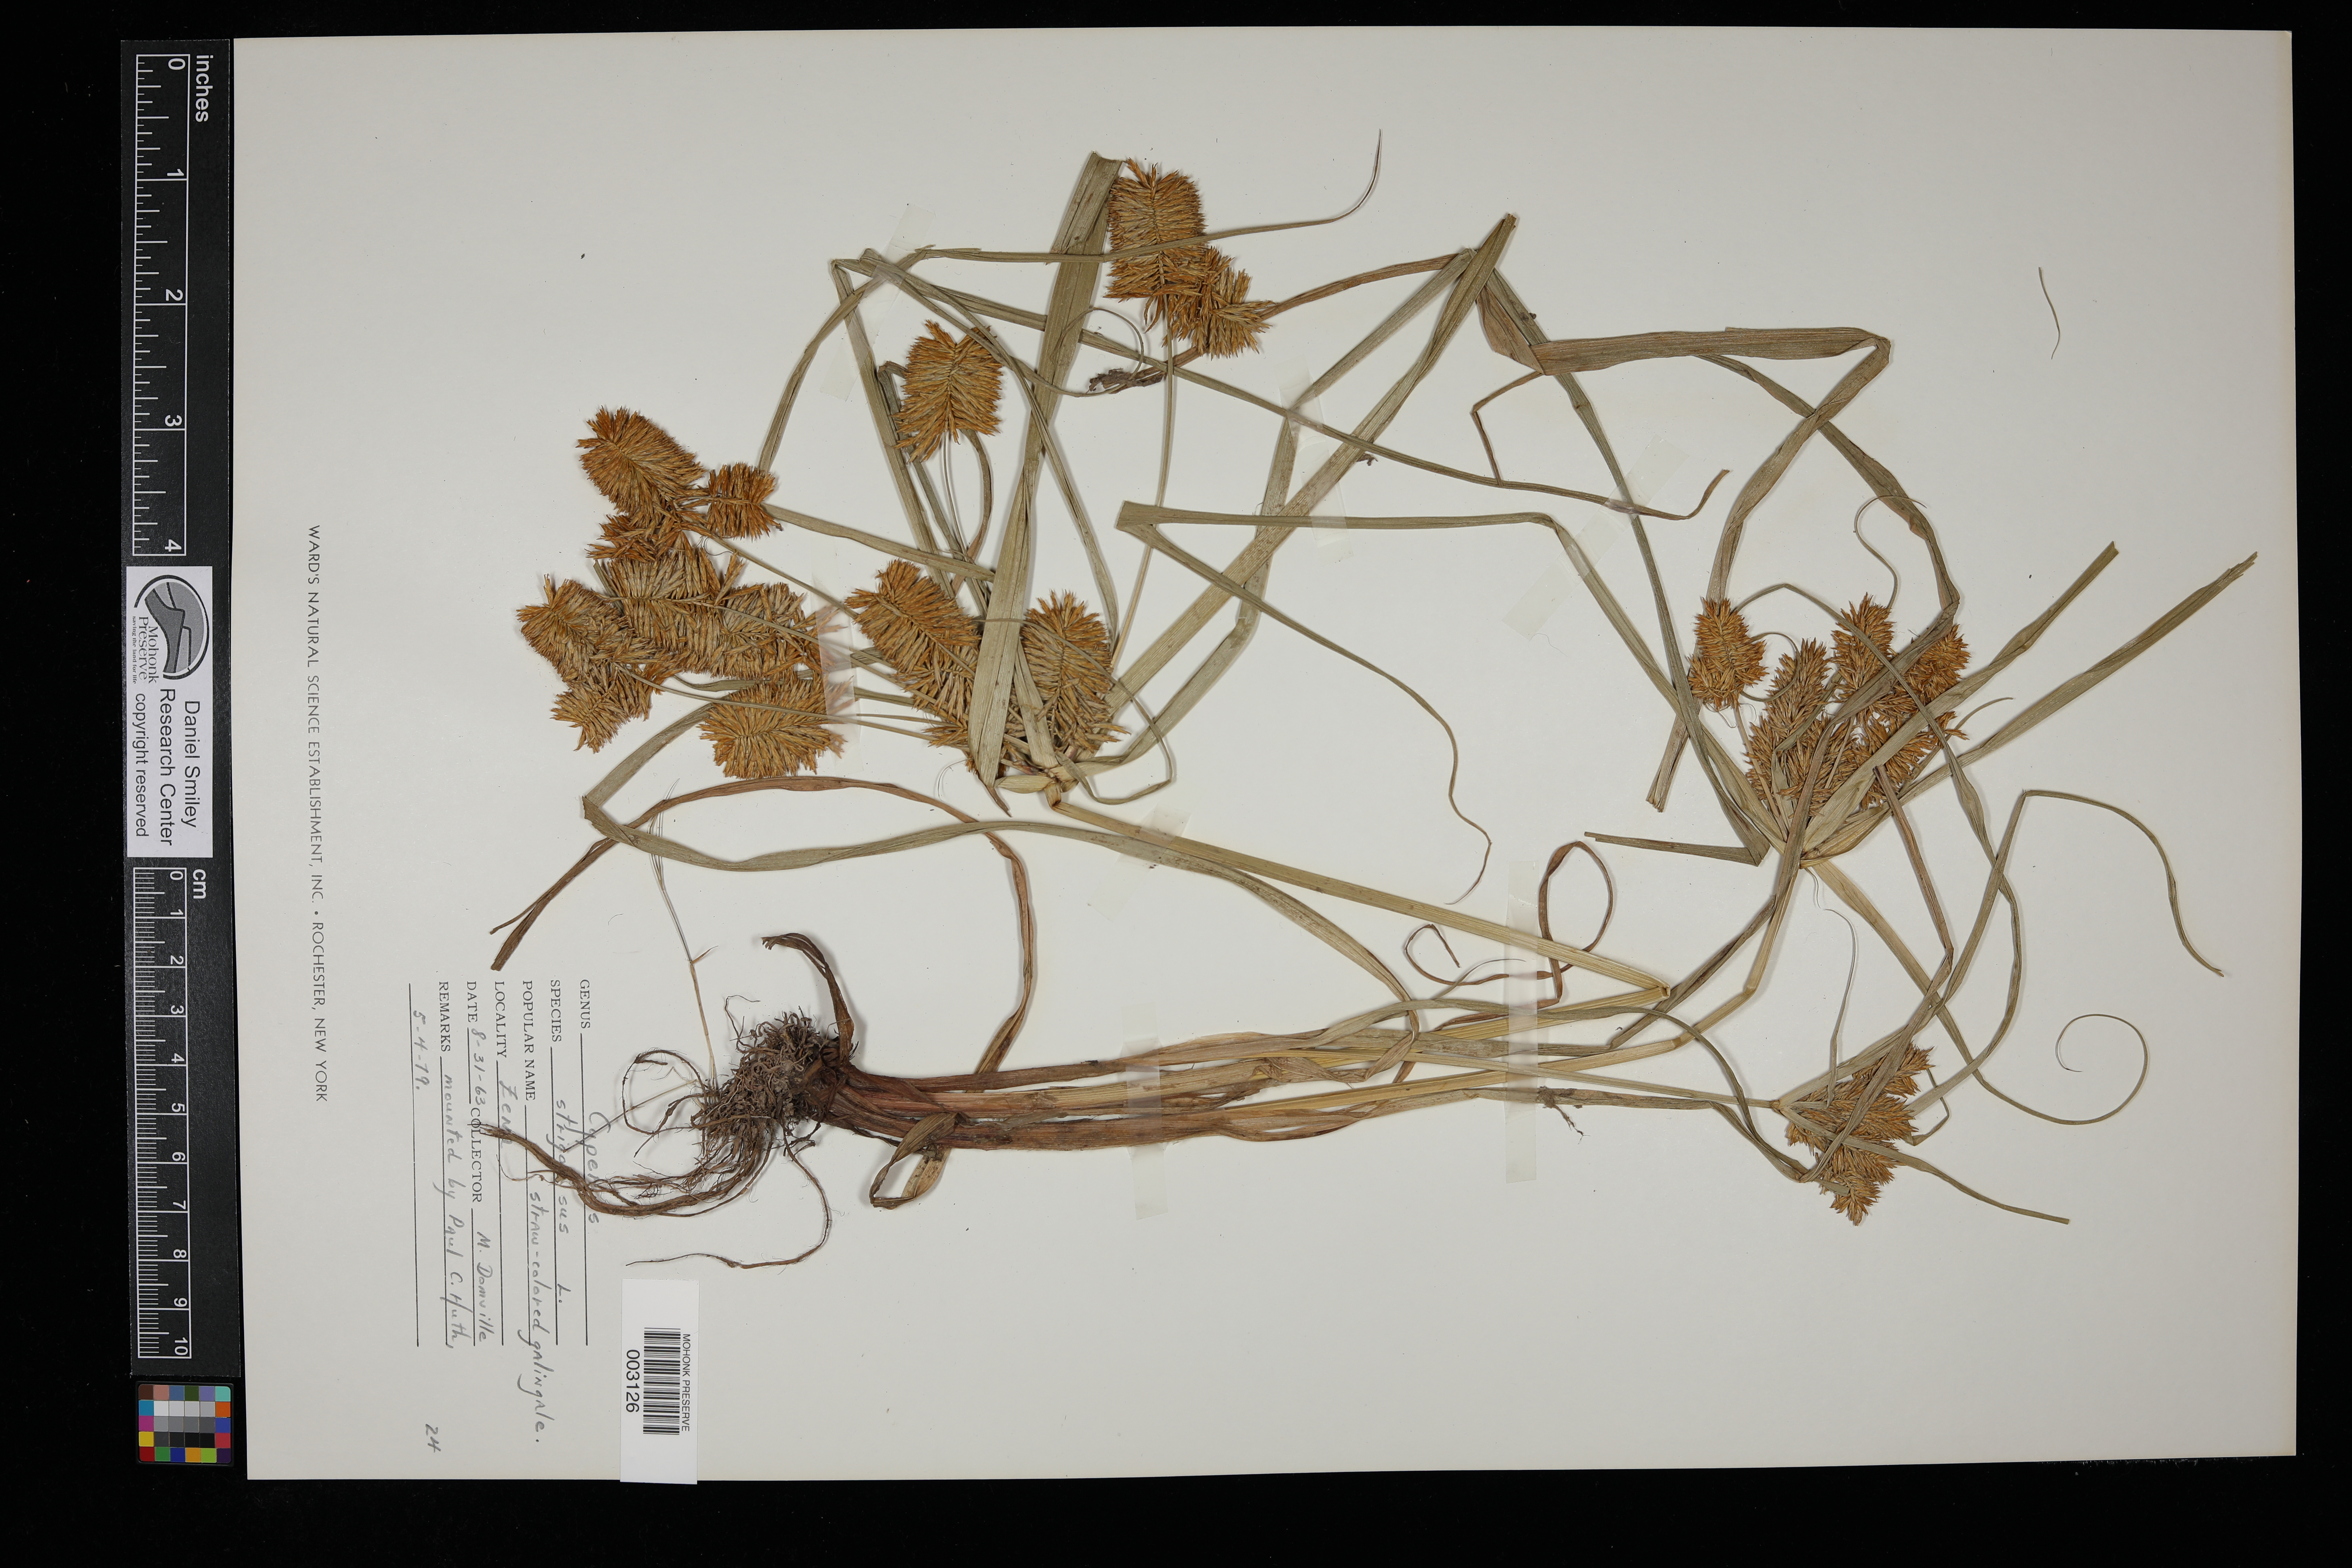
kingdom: Plantae
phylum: Tracheophyta
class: Liliopsida
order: Poales
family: Cyperaceae
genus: Cyperus
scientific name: Cyperus strigosus
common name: False nutsedge
